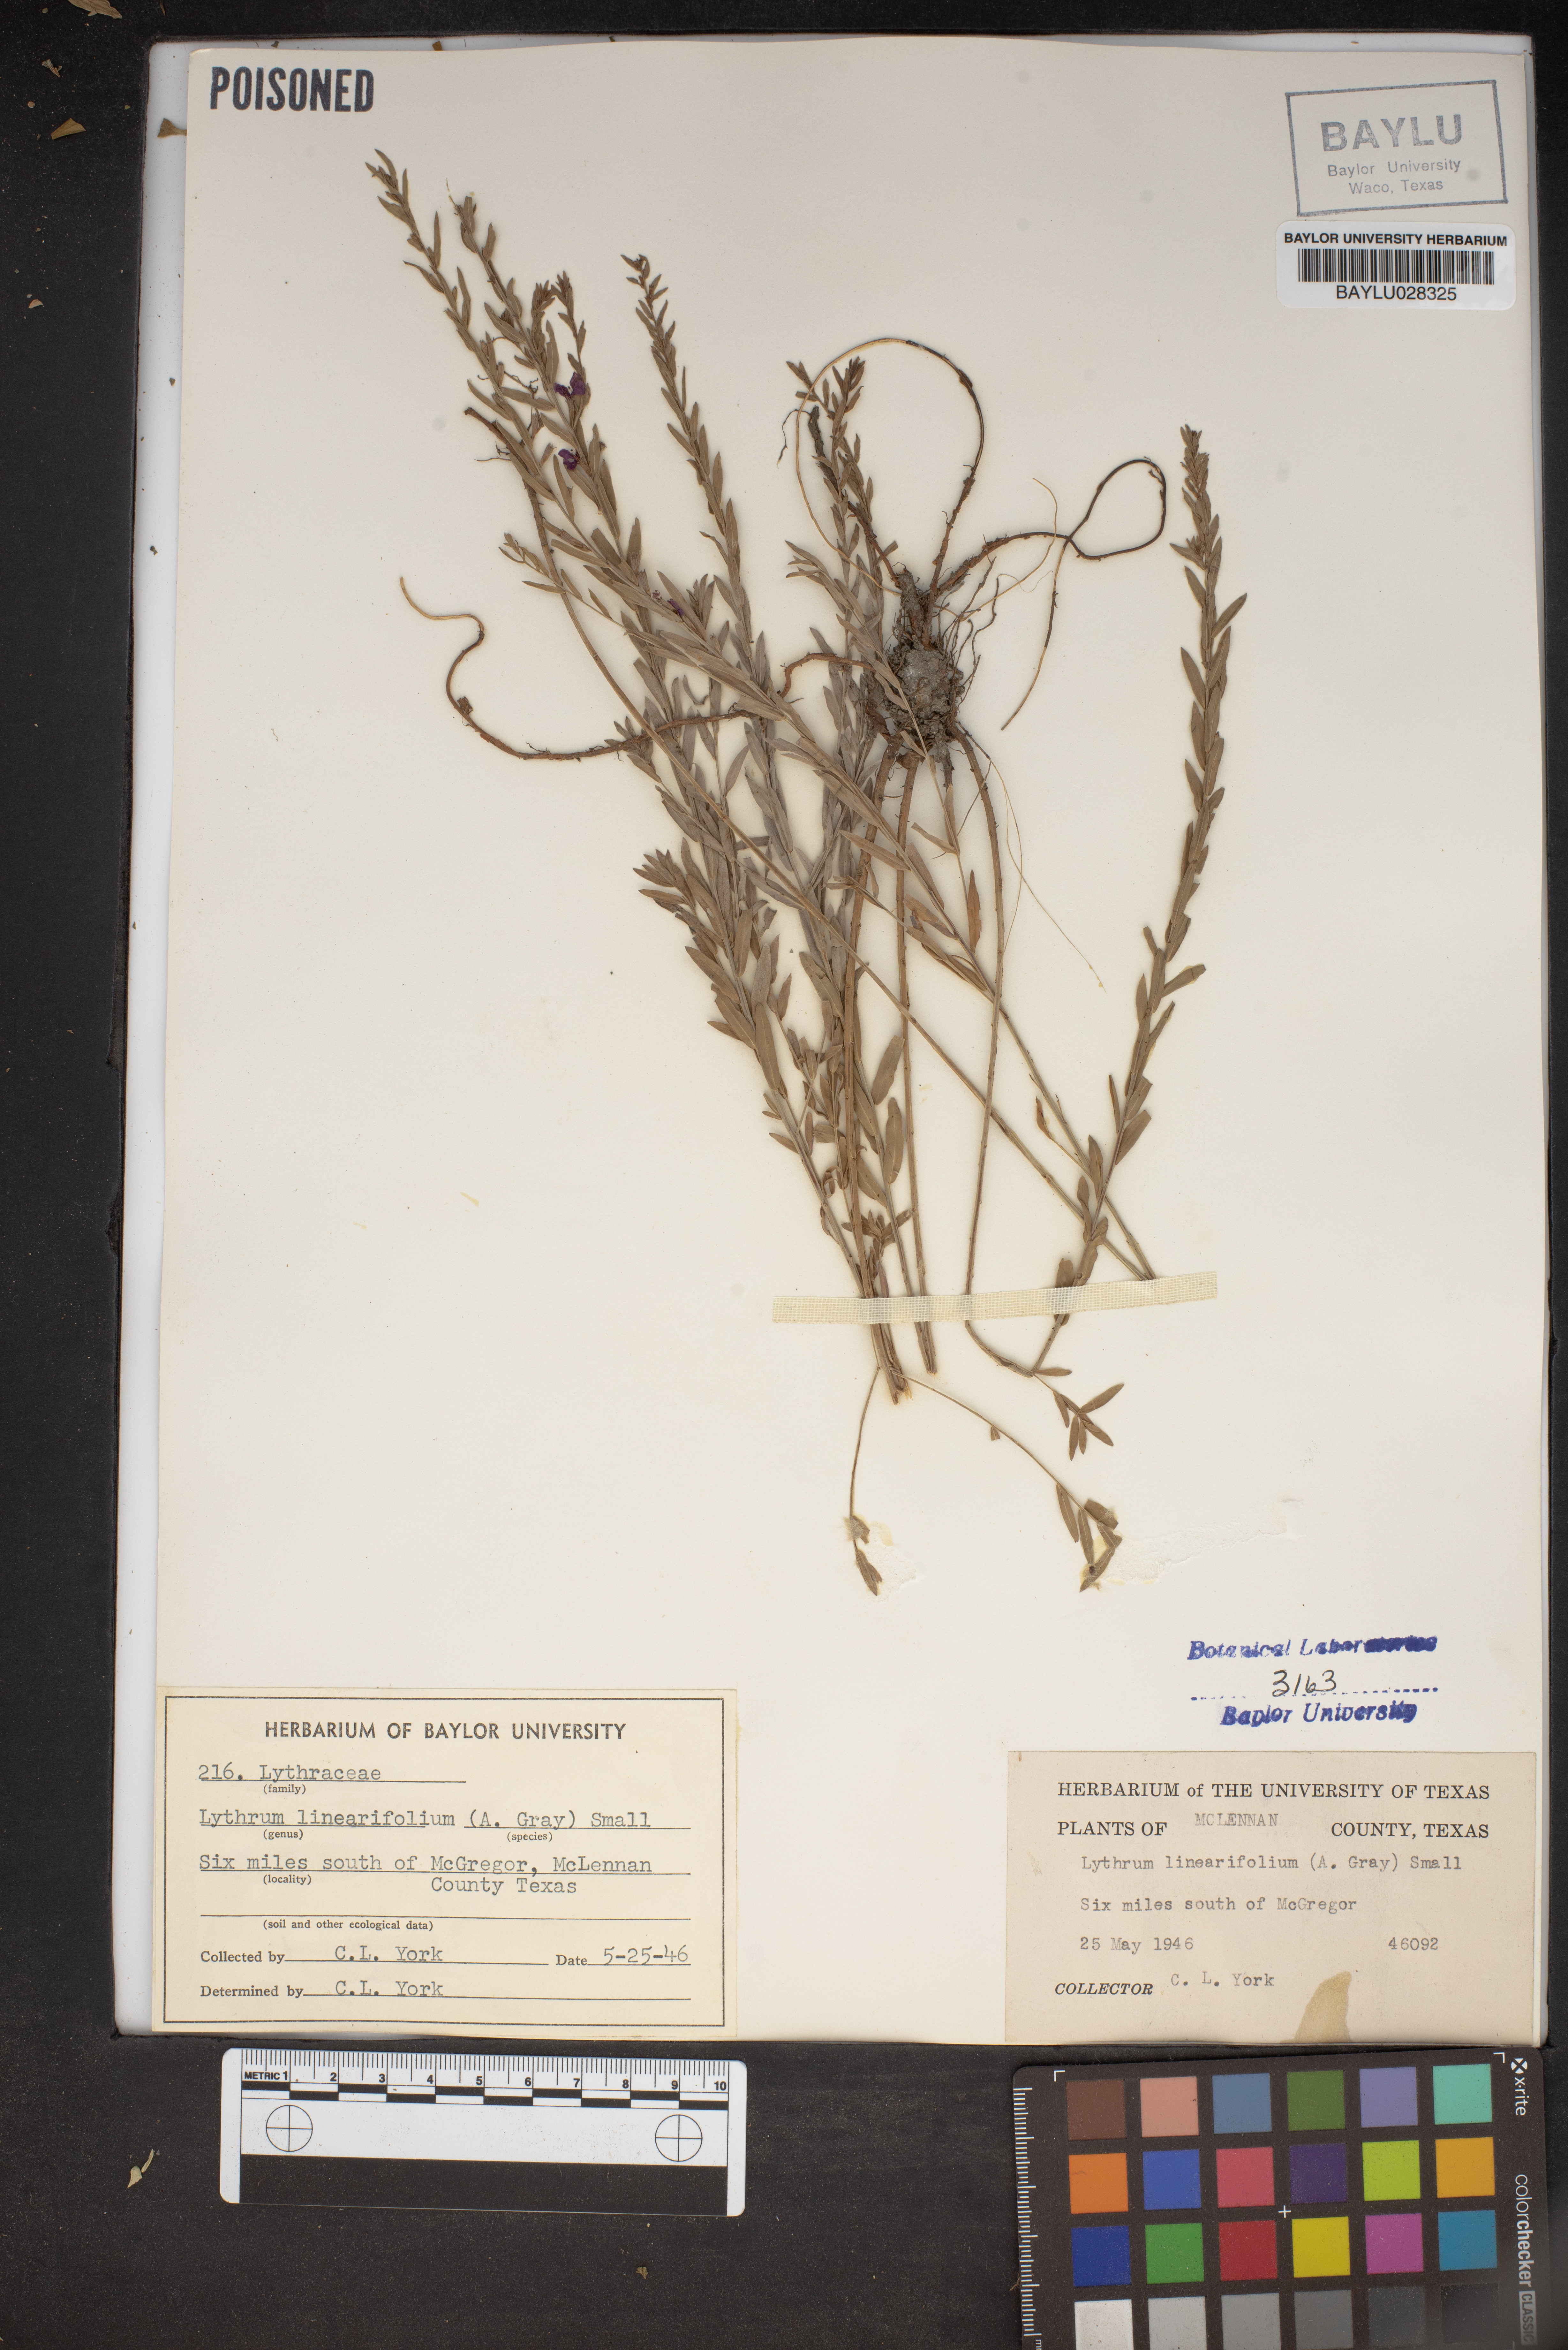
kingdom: Plantae
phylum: Tracheophyta
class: Magnoliopsida
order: Myrtales
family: Lythraceae
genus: Lythrum
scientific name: Lythrum californicum
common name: California loosestrife
